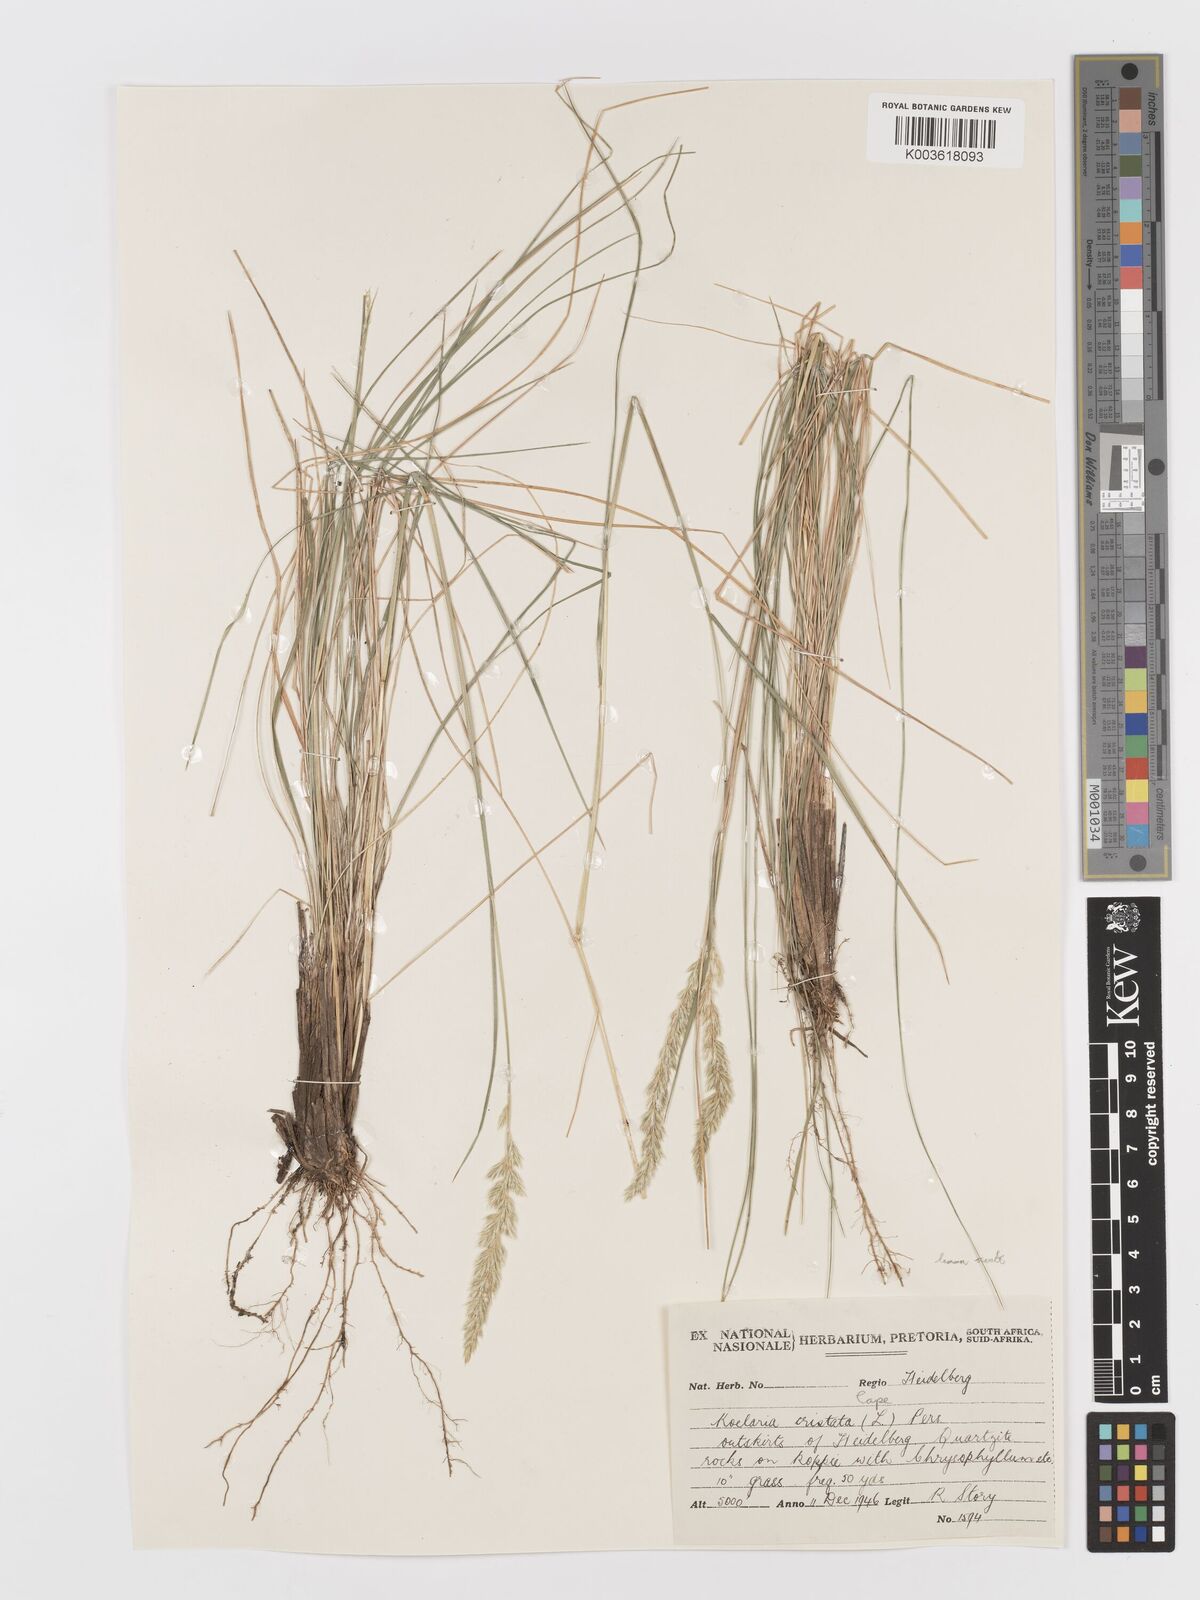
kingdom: Plantae
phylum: Tracheophyta
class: Liliopsida
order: Poales
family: Poaceae
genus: Koeleria
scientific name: Koeleria capensis
